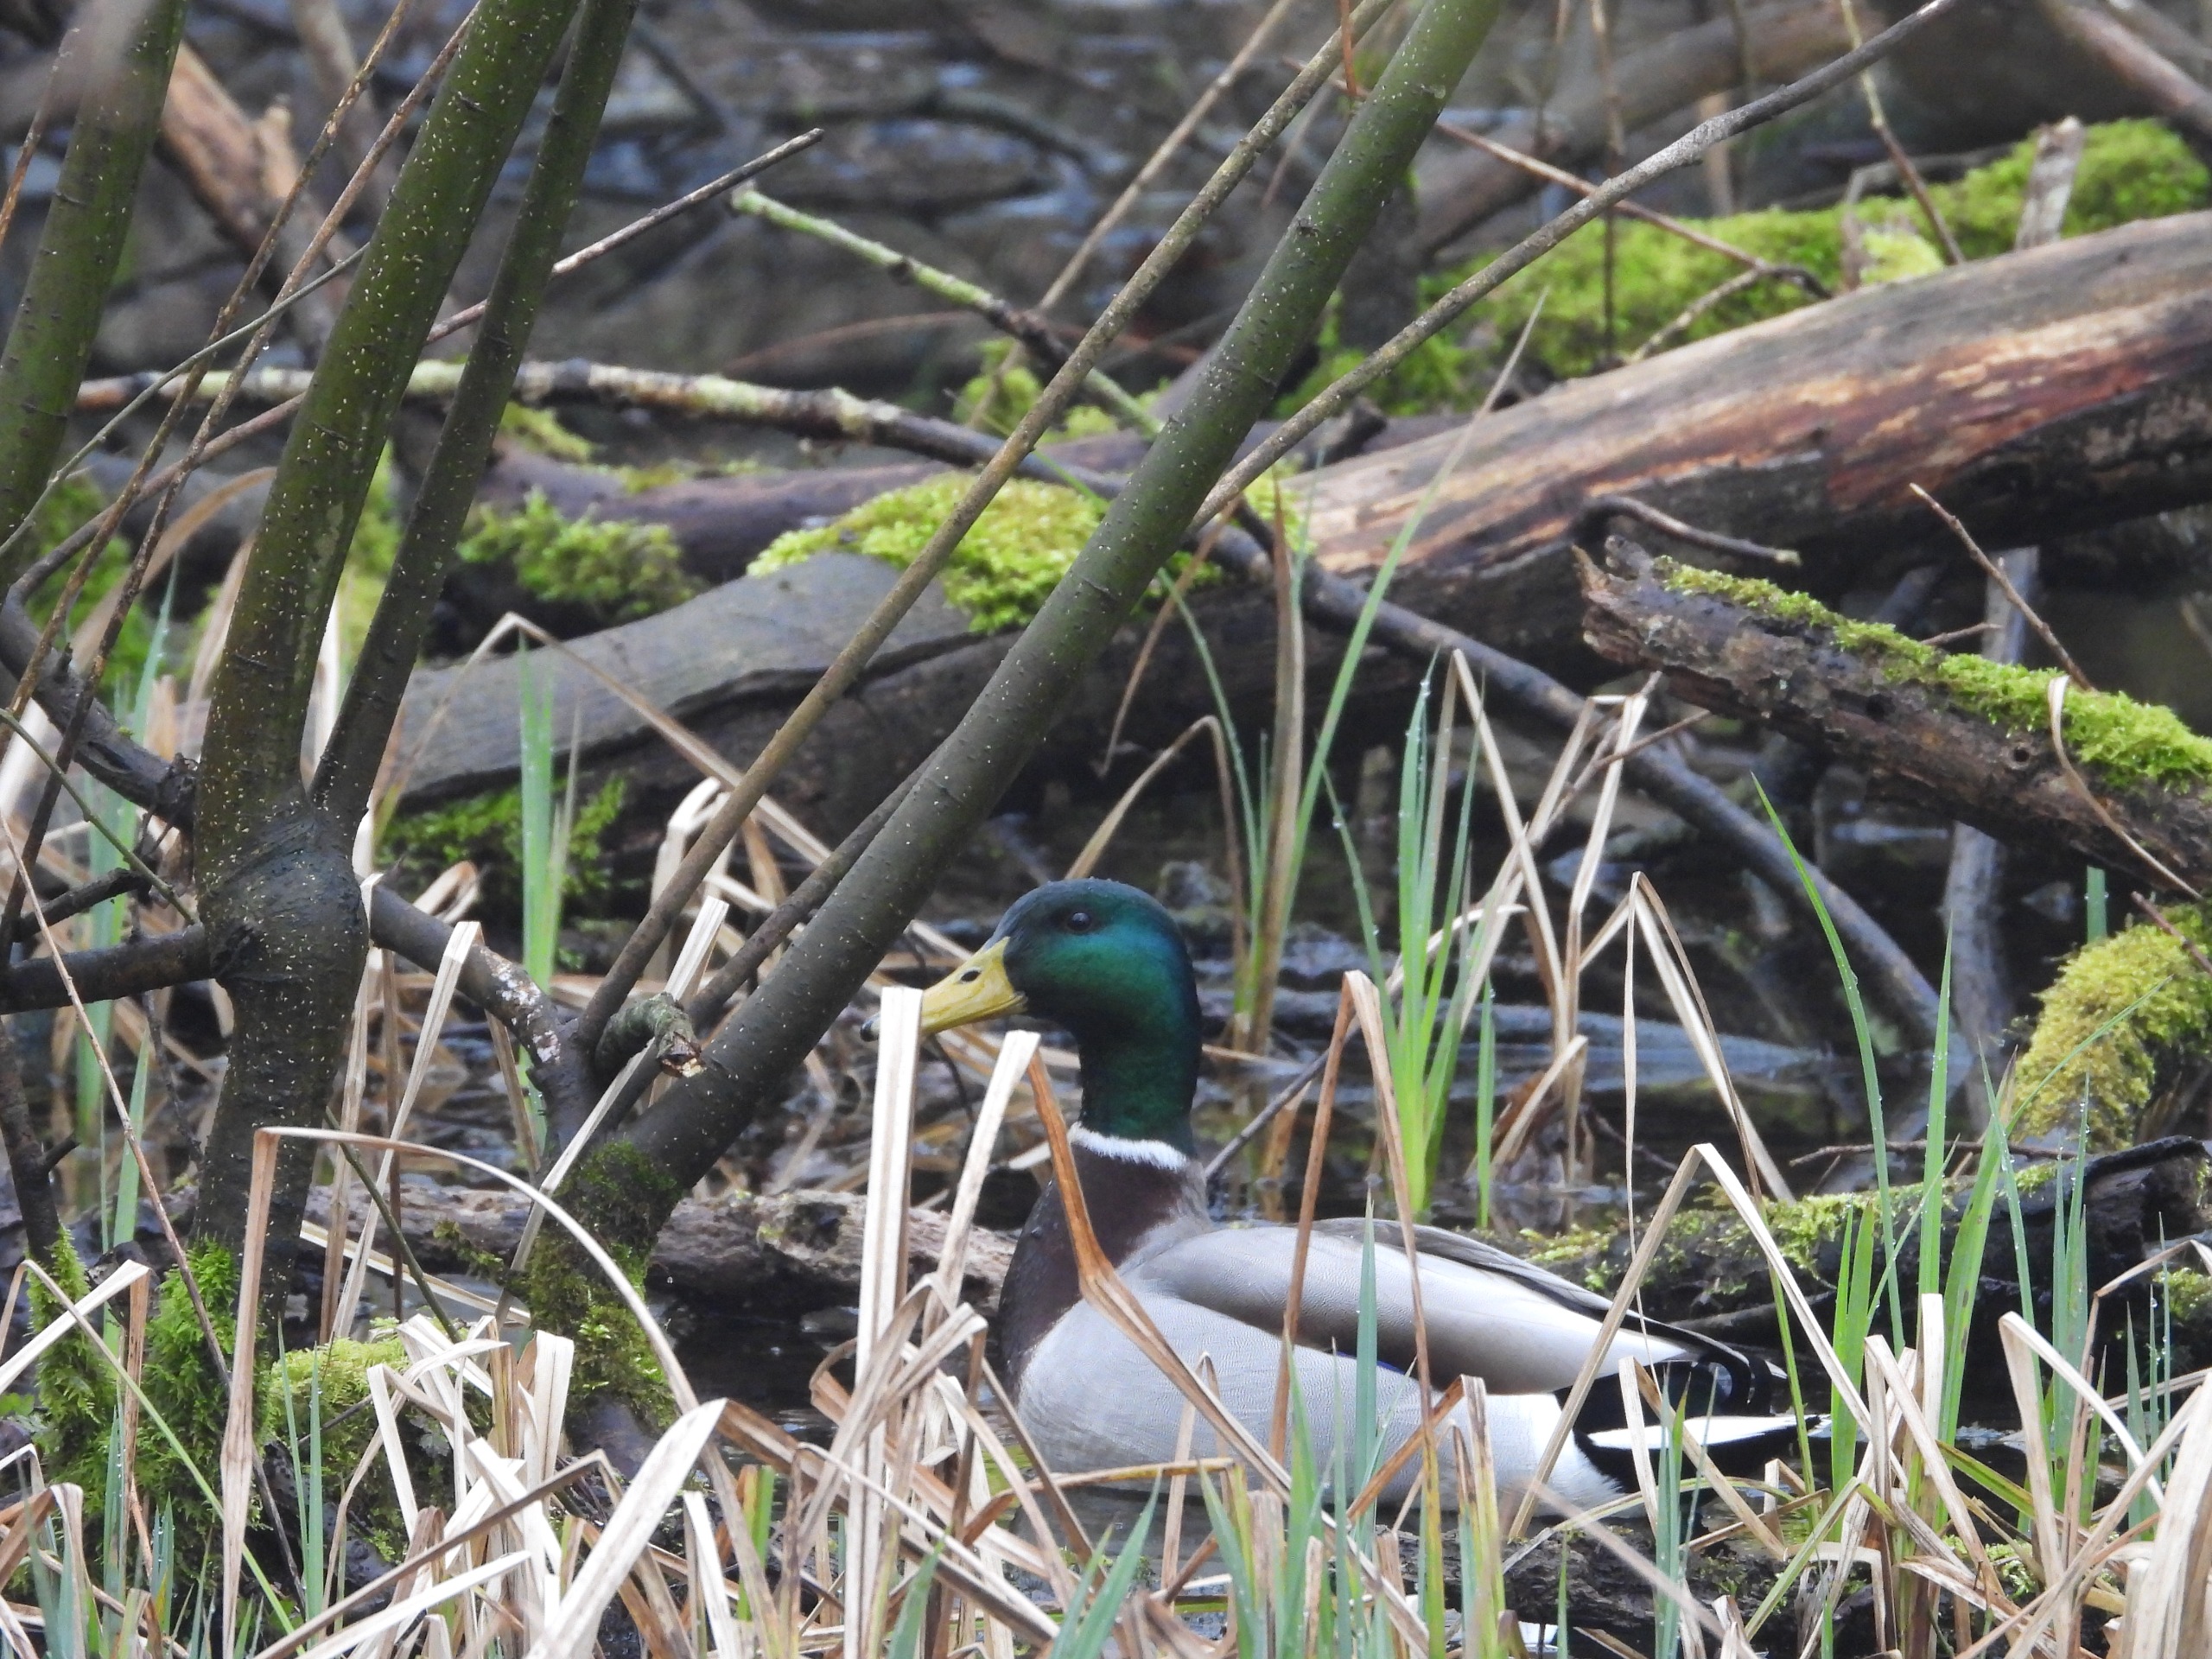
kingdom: Animalia
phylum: Chordata
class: Aves
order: Anseriformes
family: Anatidae
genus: Anas
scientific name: Anas platyrhynchos
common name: Gråand
